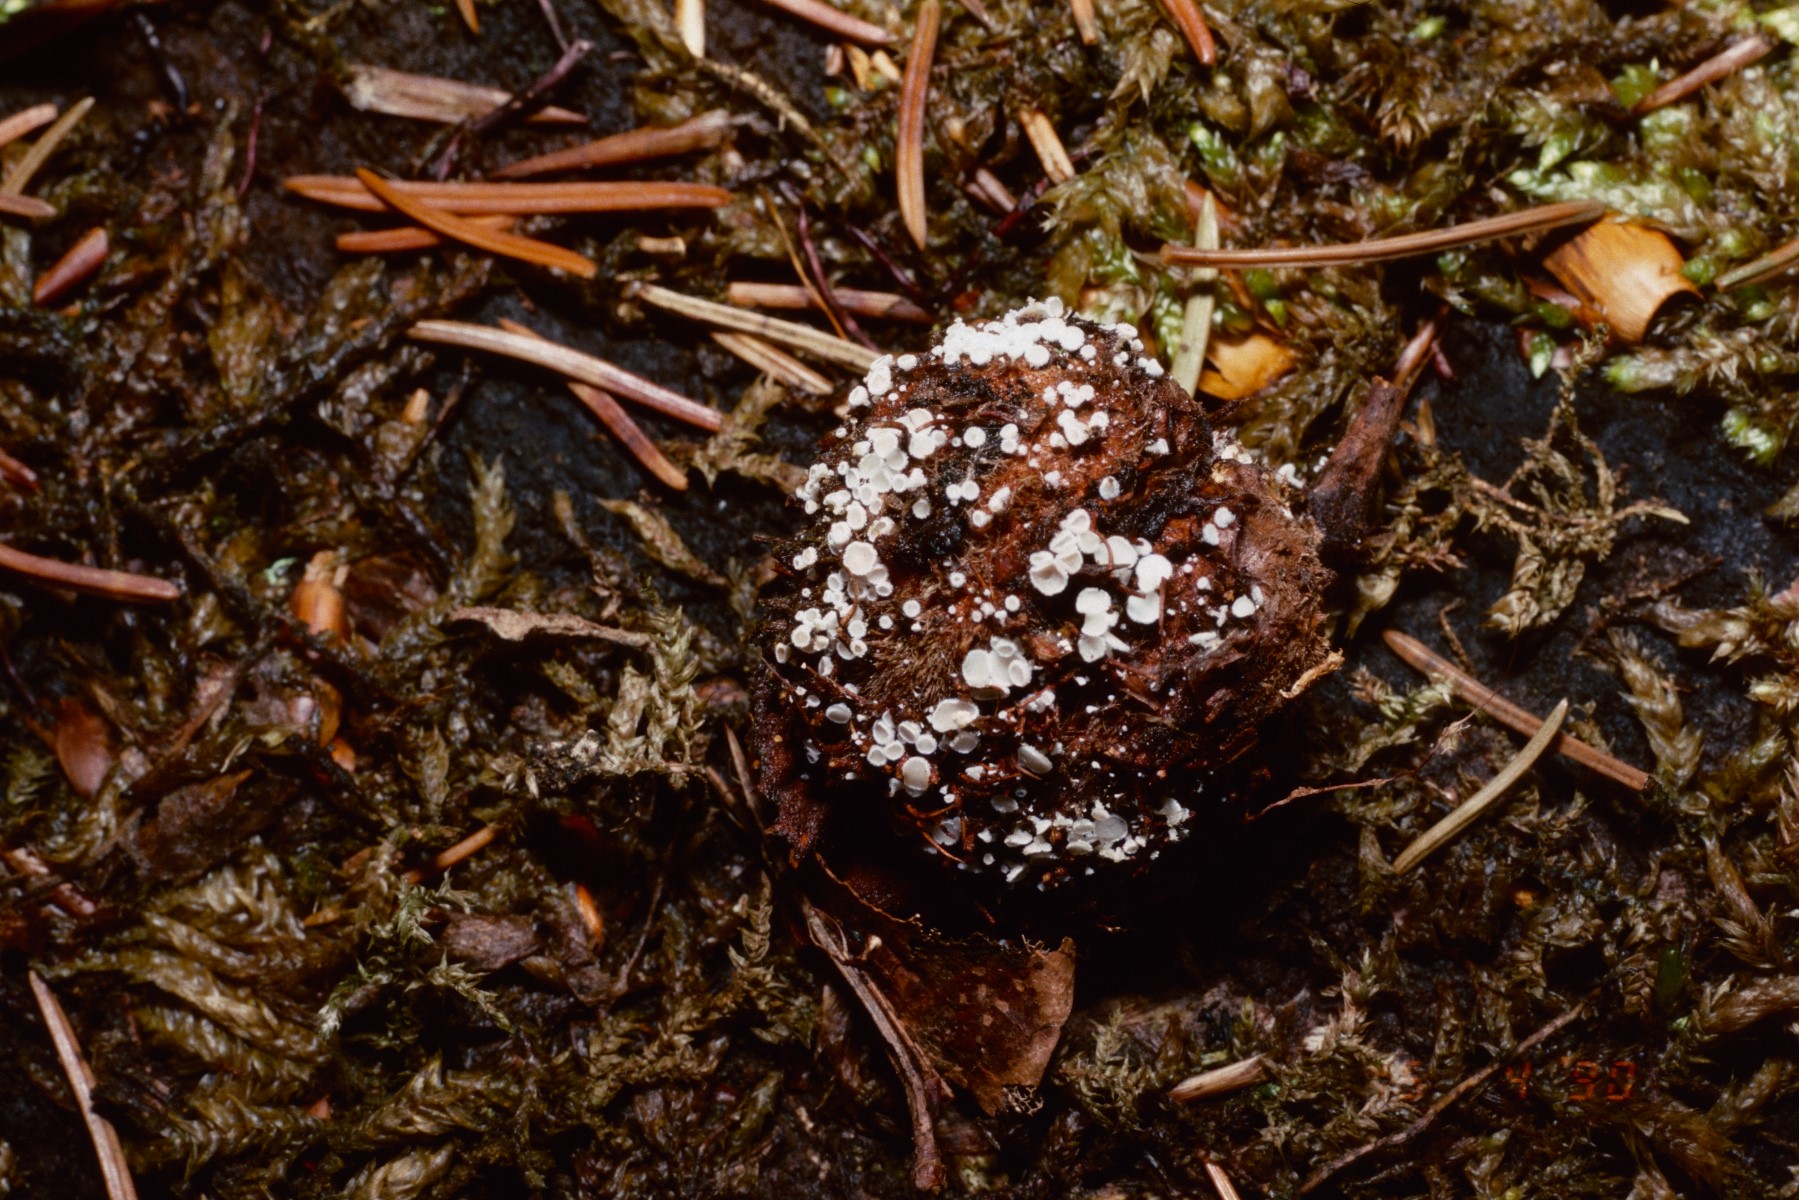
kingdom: Fungi
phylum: Ascomycota
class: Leotiomycetes
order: Helotiales
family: Lachnaceae
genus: Lachnum
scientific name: Lachnum virgineum
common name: jomfru-frynseskive
